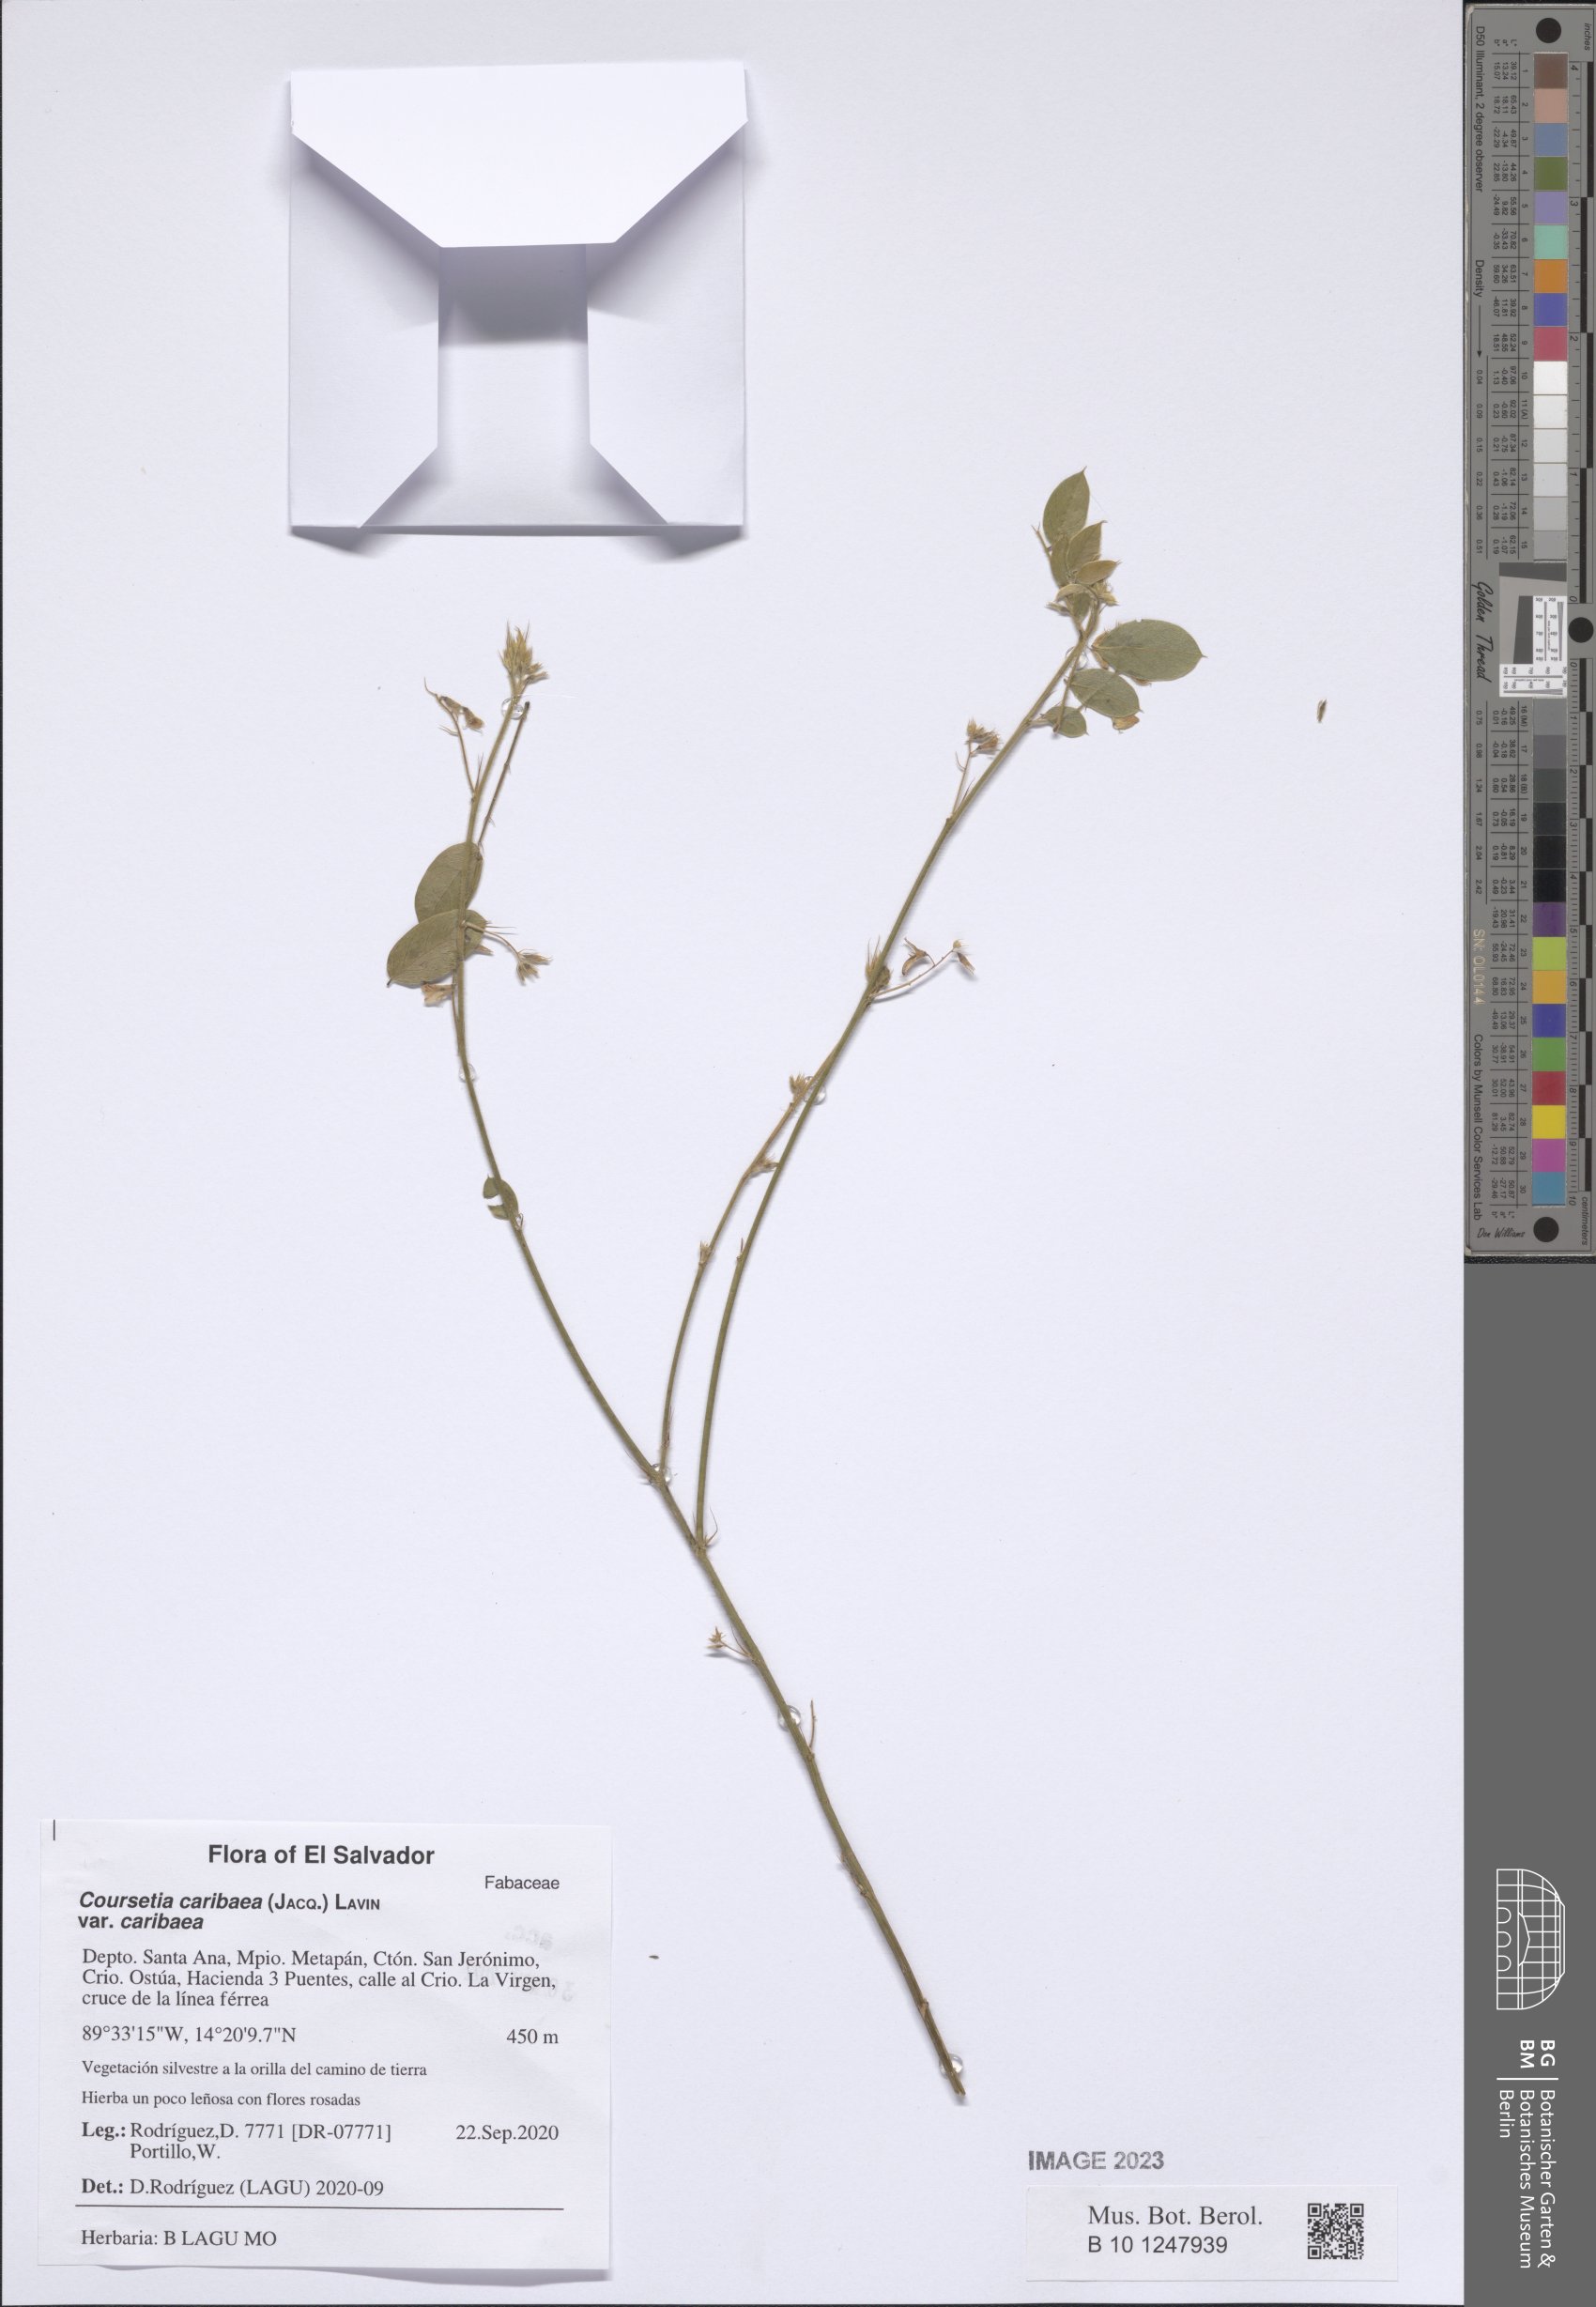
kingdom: Plantae
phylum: Tracheophyta
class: Magnoliopsida
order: Fabales
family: Fabaceae
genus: Coursetia
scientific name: Coursetia caribaea
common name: Anil falso
